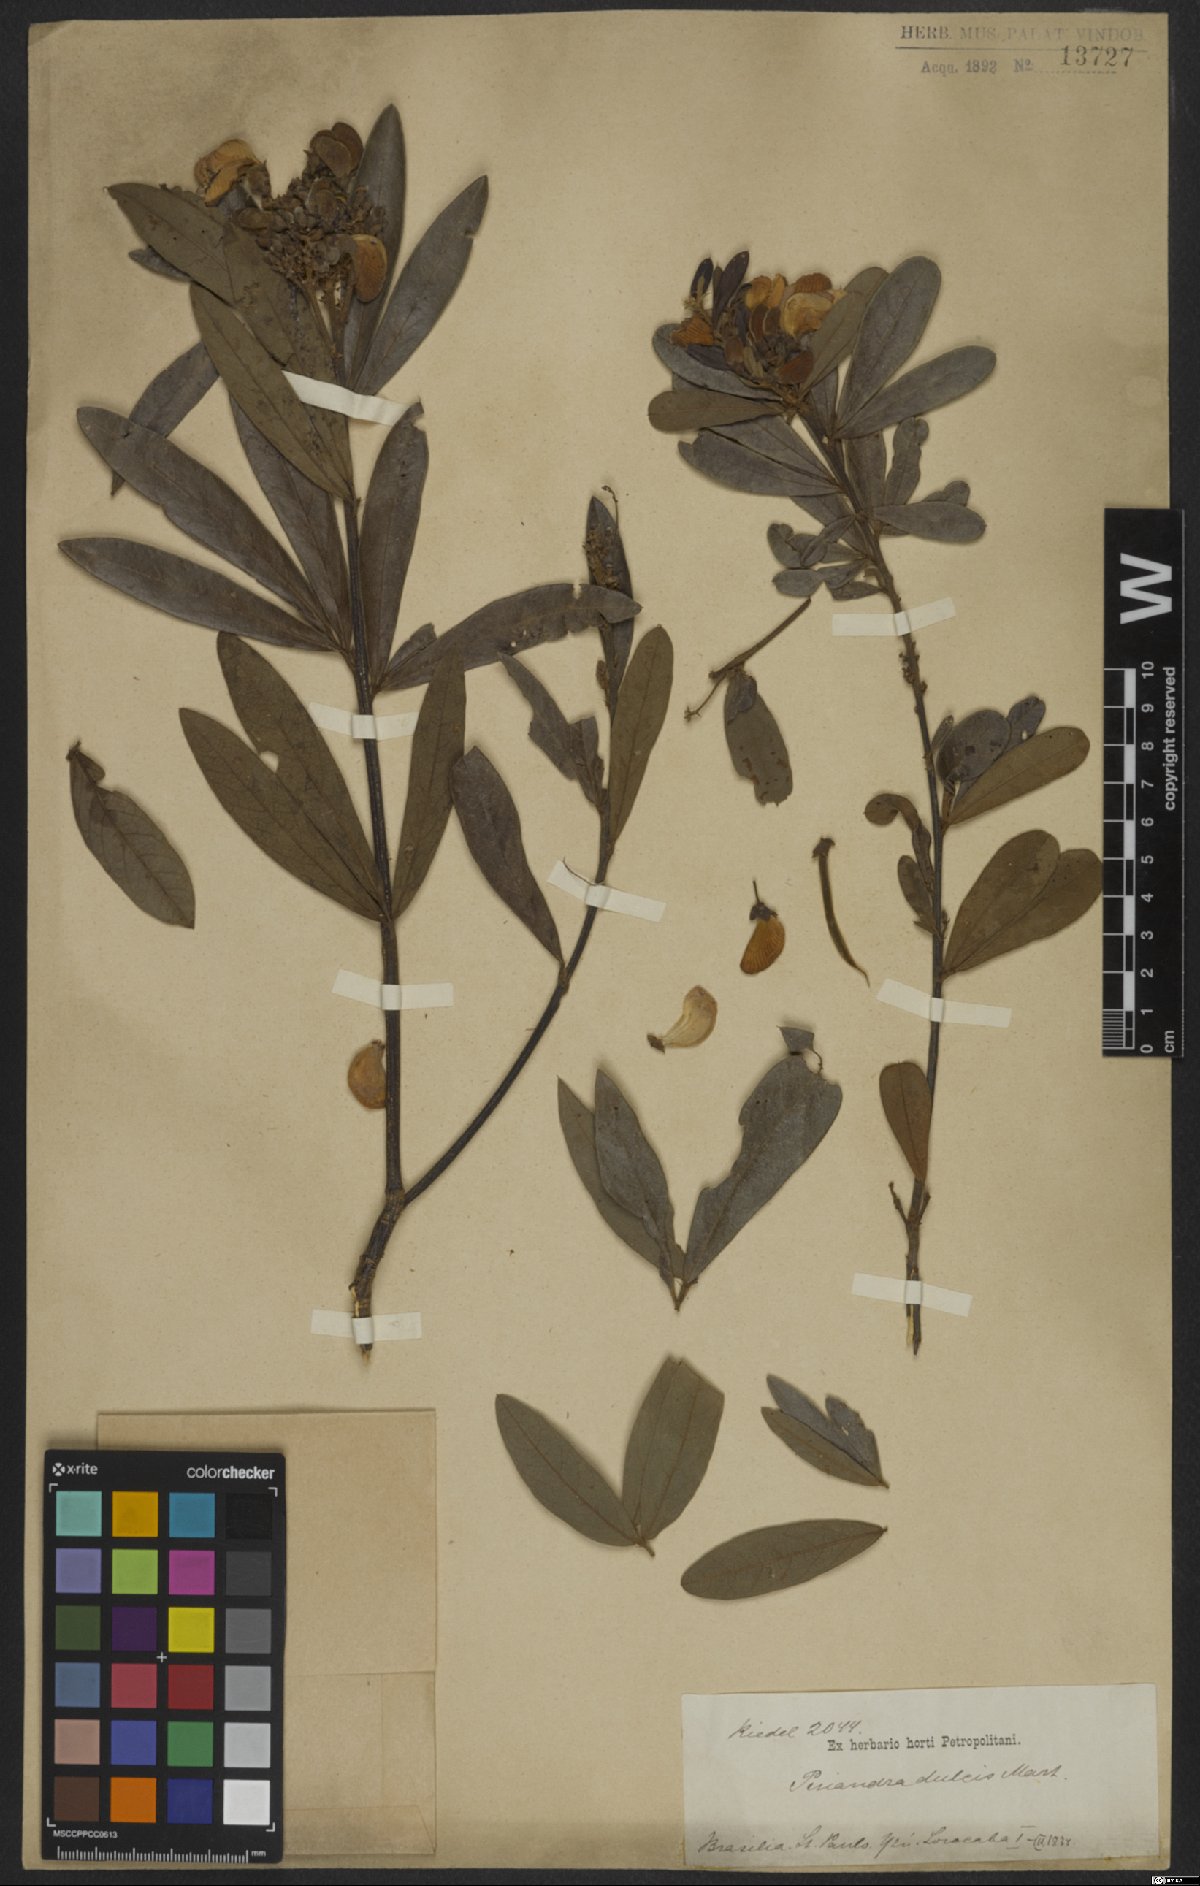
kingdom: Plantae
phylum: Tracheophyta
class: Magnoliopsida
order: Fabales
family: Fabaceae
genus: Periandra
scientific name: Periandra mediterranea
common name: Brazilian licorice
